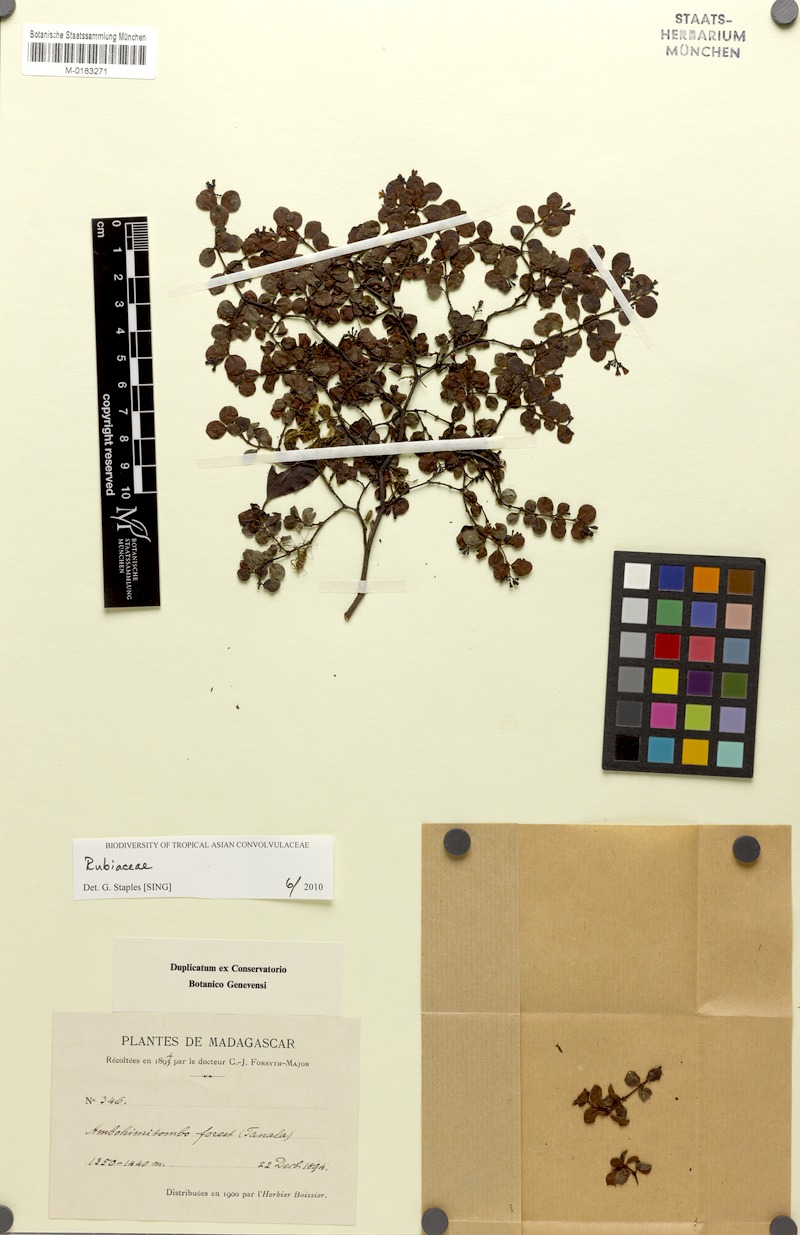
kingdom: Plantae
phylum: Tracheophyta
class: Magnoliopsida
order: Gentianales
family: Rubiaceae
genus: Psychotria
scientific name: Psychotria ambohimitombensis
